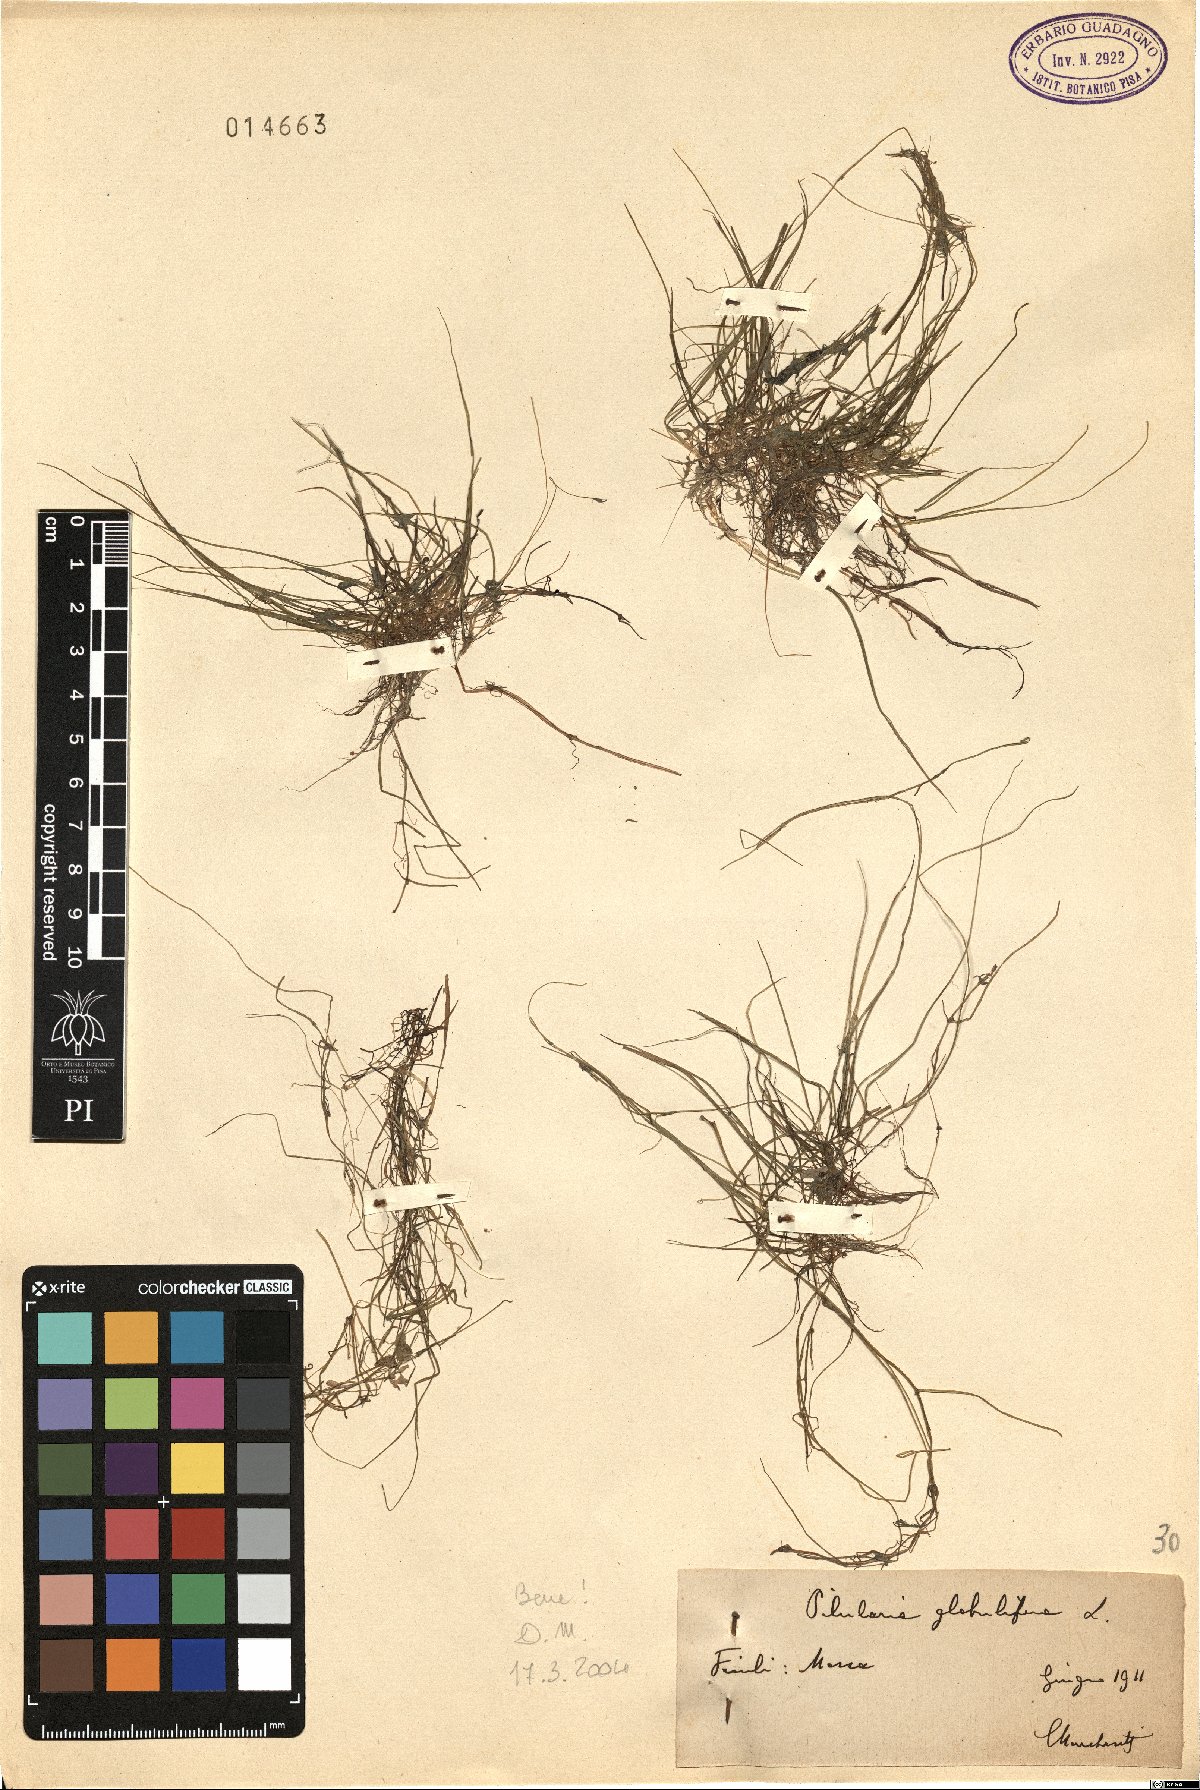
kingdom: Plantae
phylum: Tracheophyta
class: Polypodiopsida
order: Salviniales
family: Marsileaceae
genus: Pilularia
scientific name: Pilularia globulifera
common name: Pillwort
